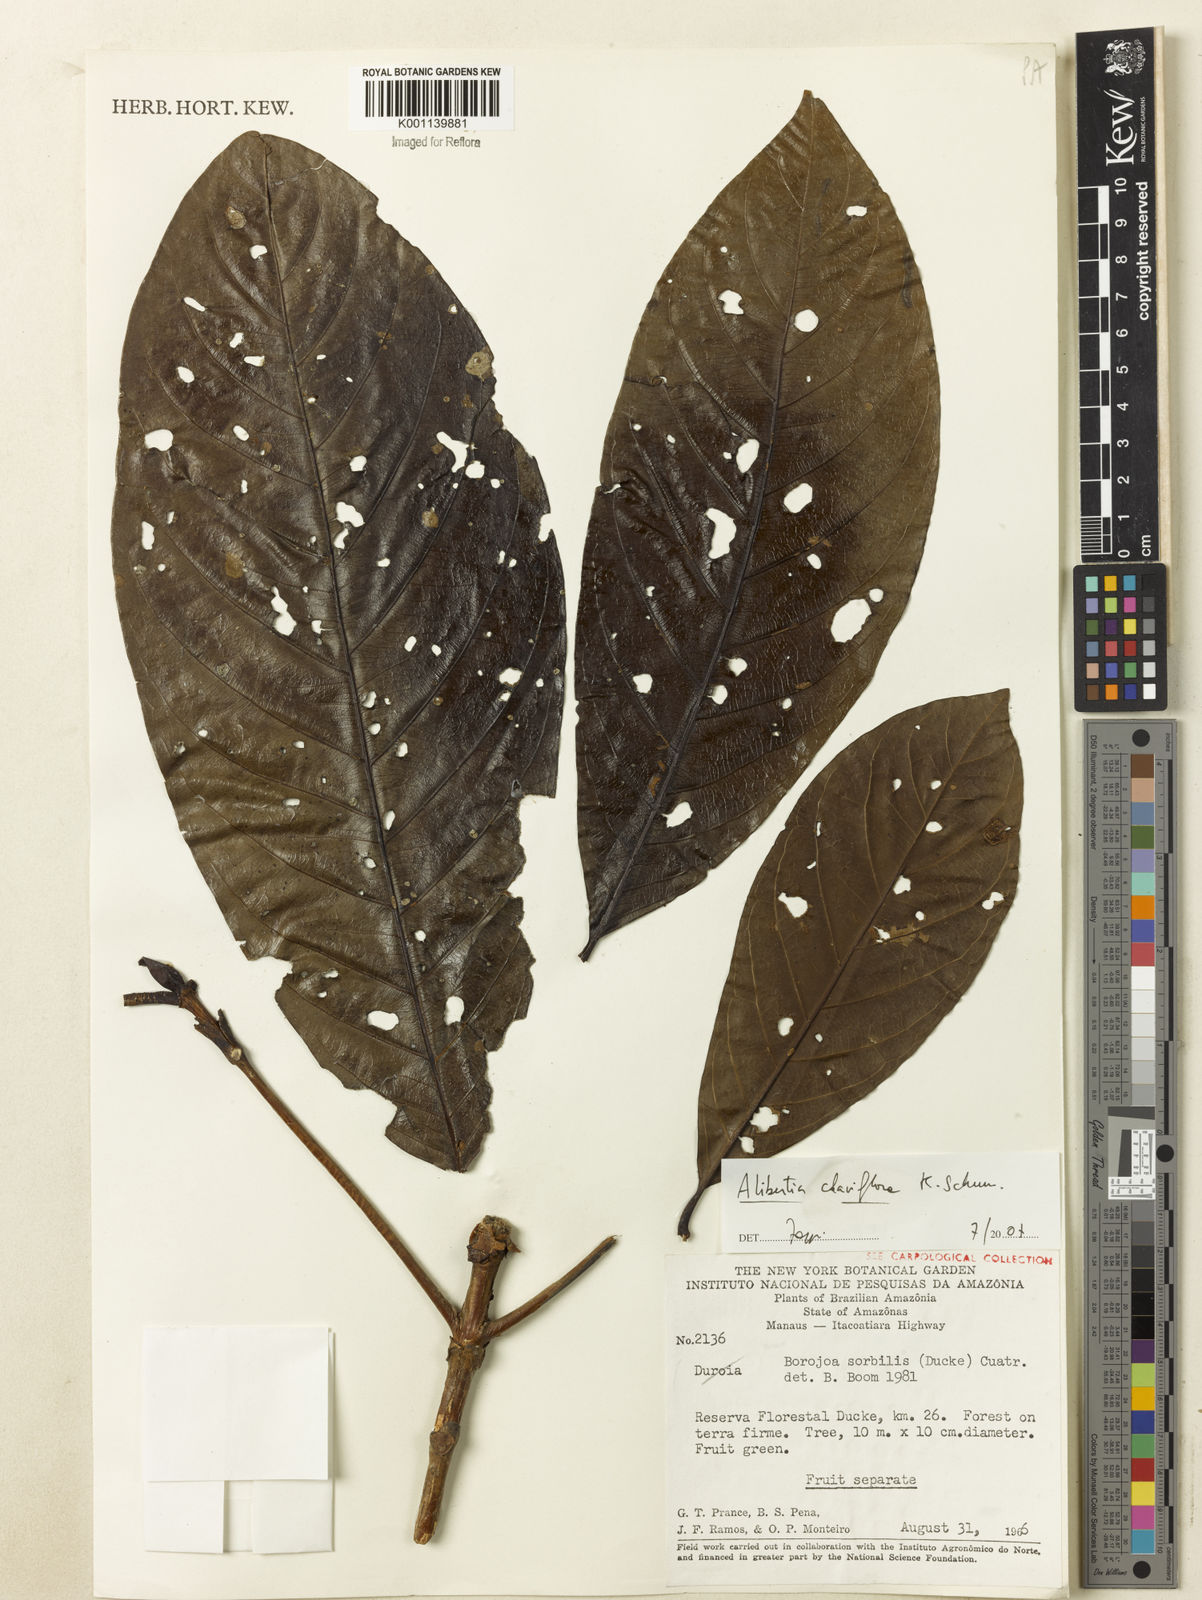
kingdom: Plantae
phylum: Tracheophyta
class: Magnoliopsida
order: Gentianales
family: Rubiaceae
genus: Alibertia
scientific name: Alibertia claviflora
